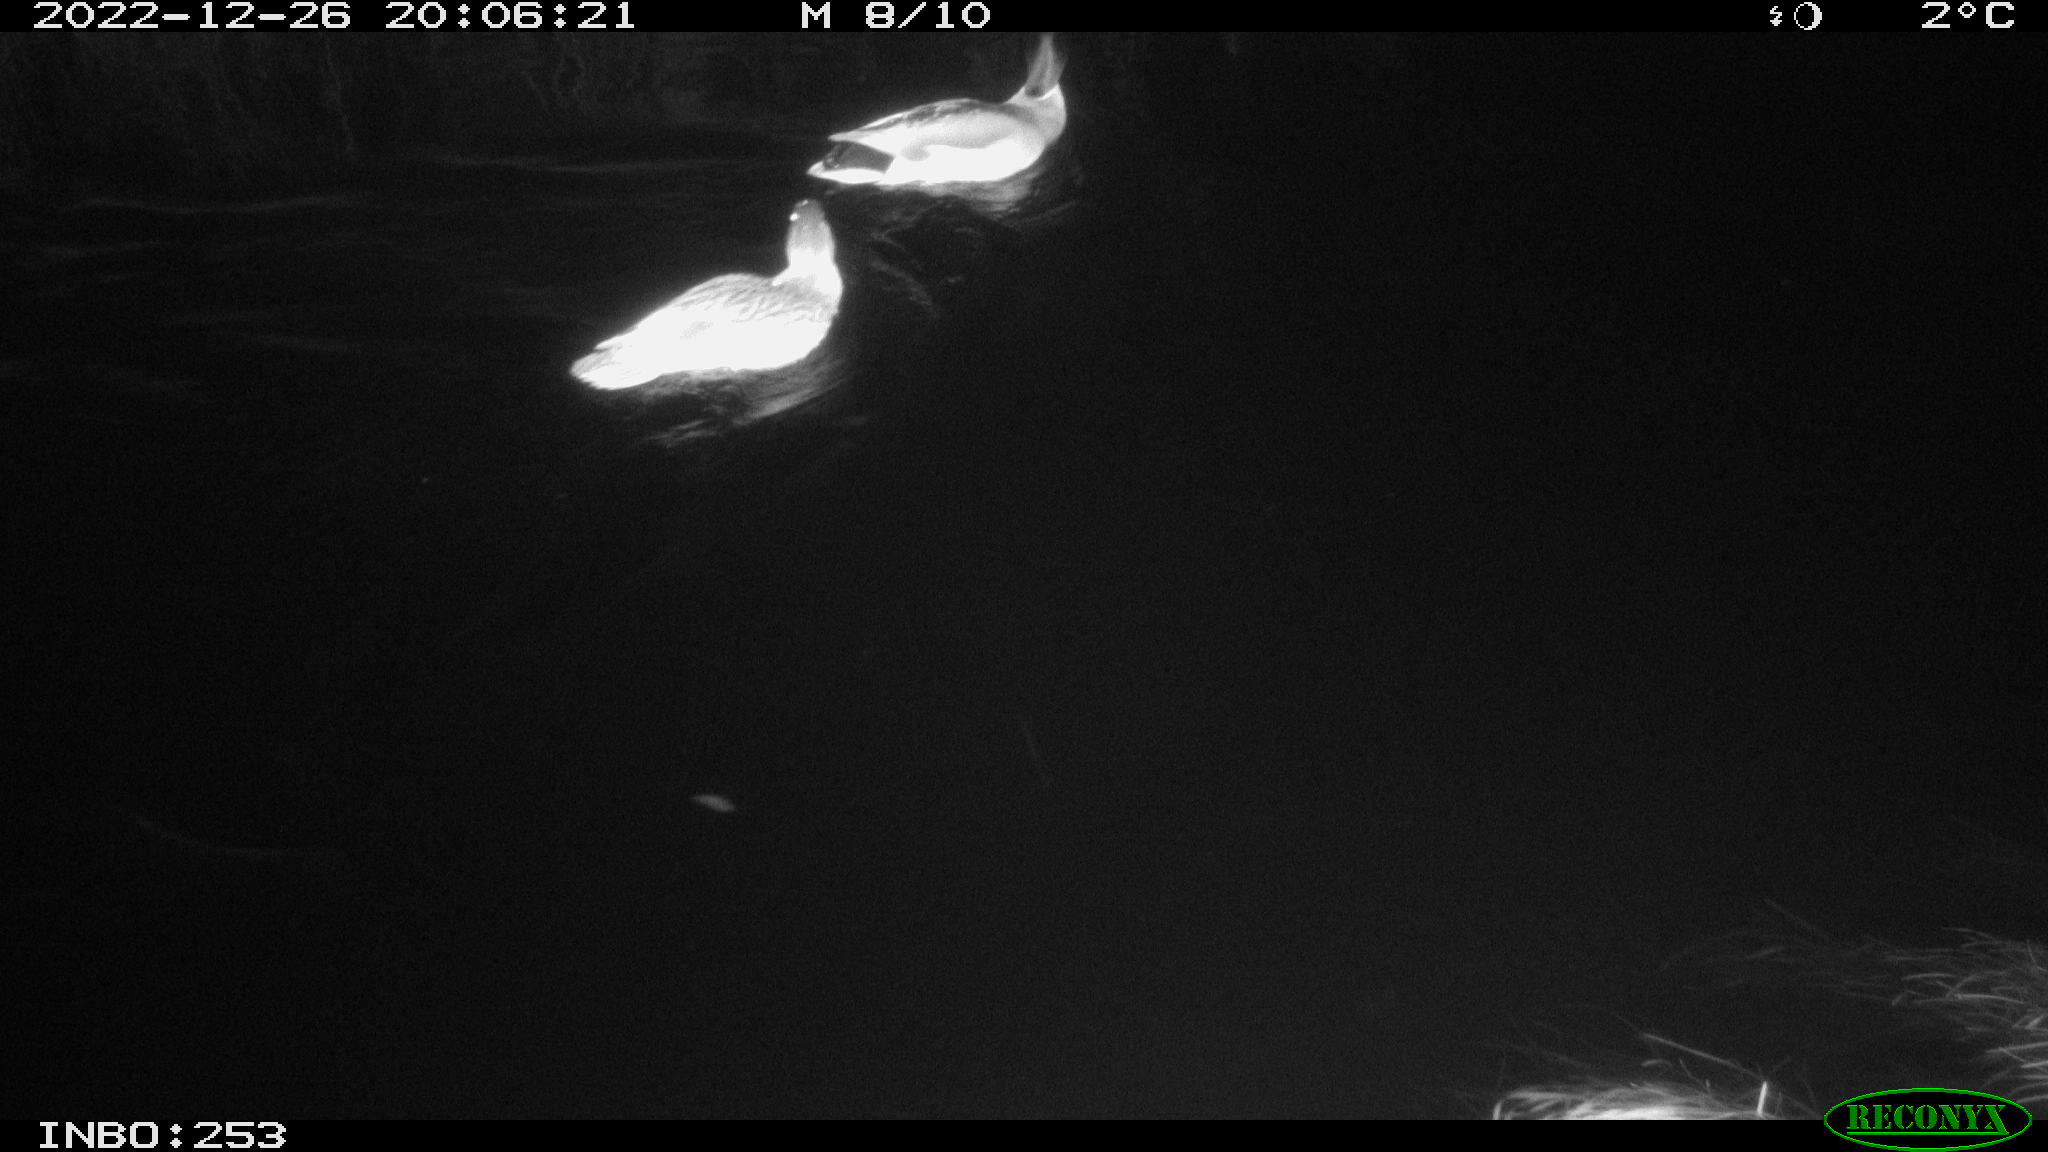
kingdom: Animalia
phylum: Chordata
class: Aves
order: Anseriformes
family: Anatidae
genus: Anas
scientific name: Anas
